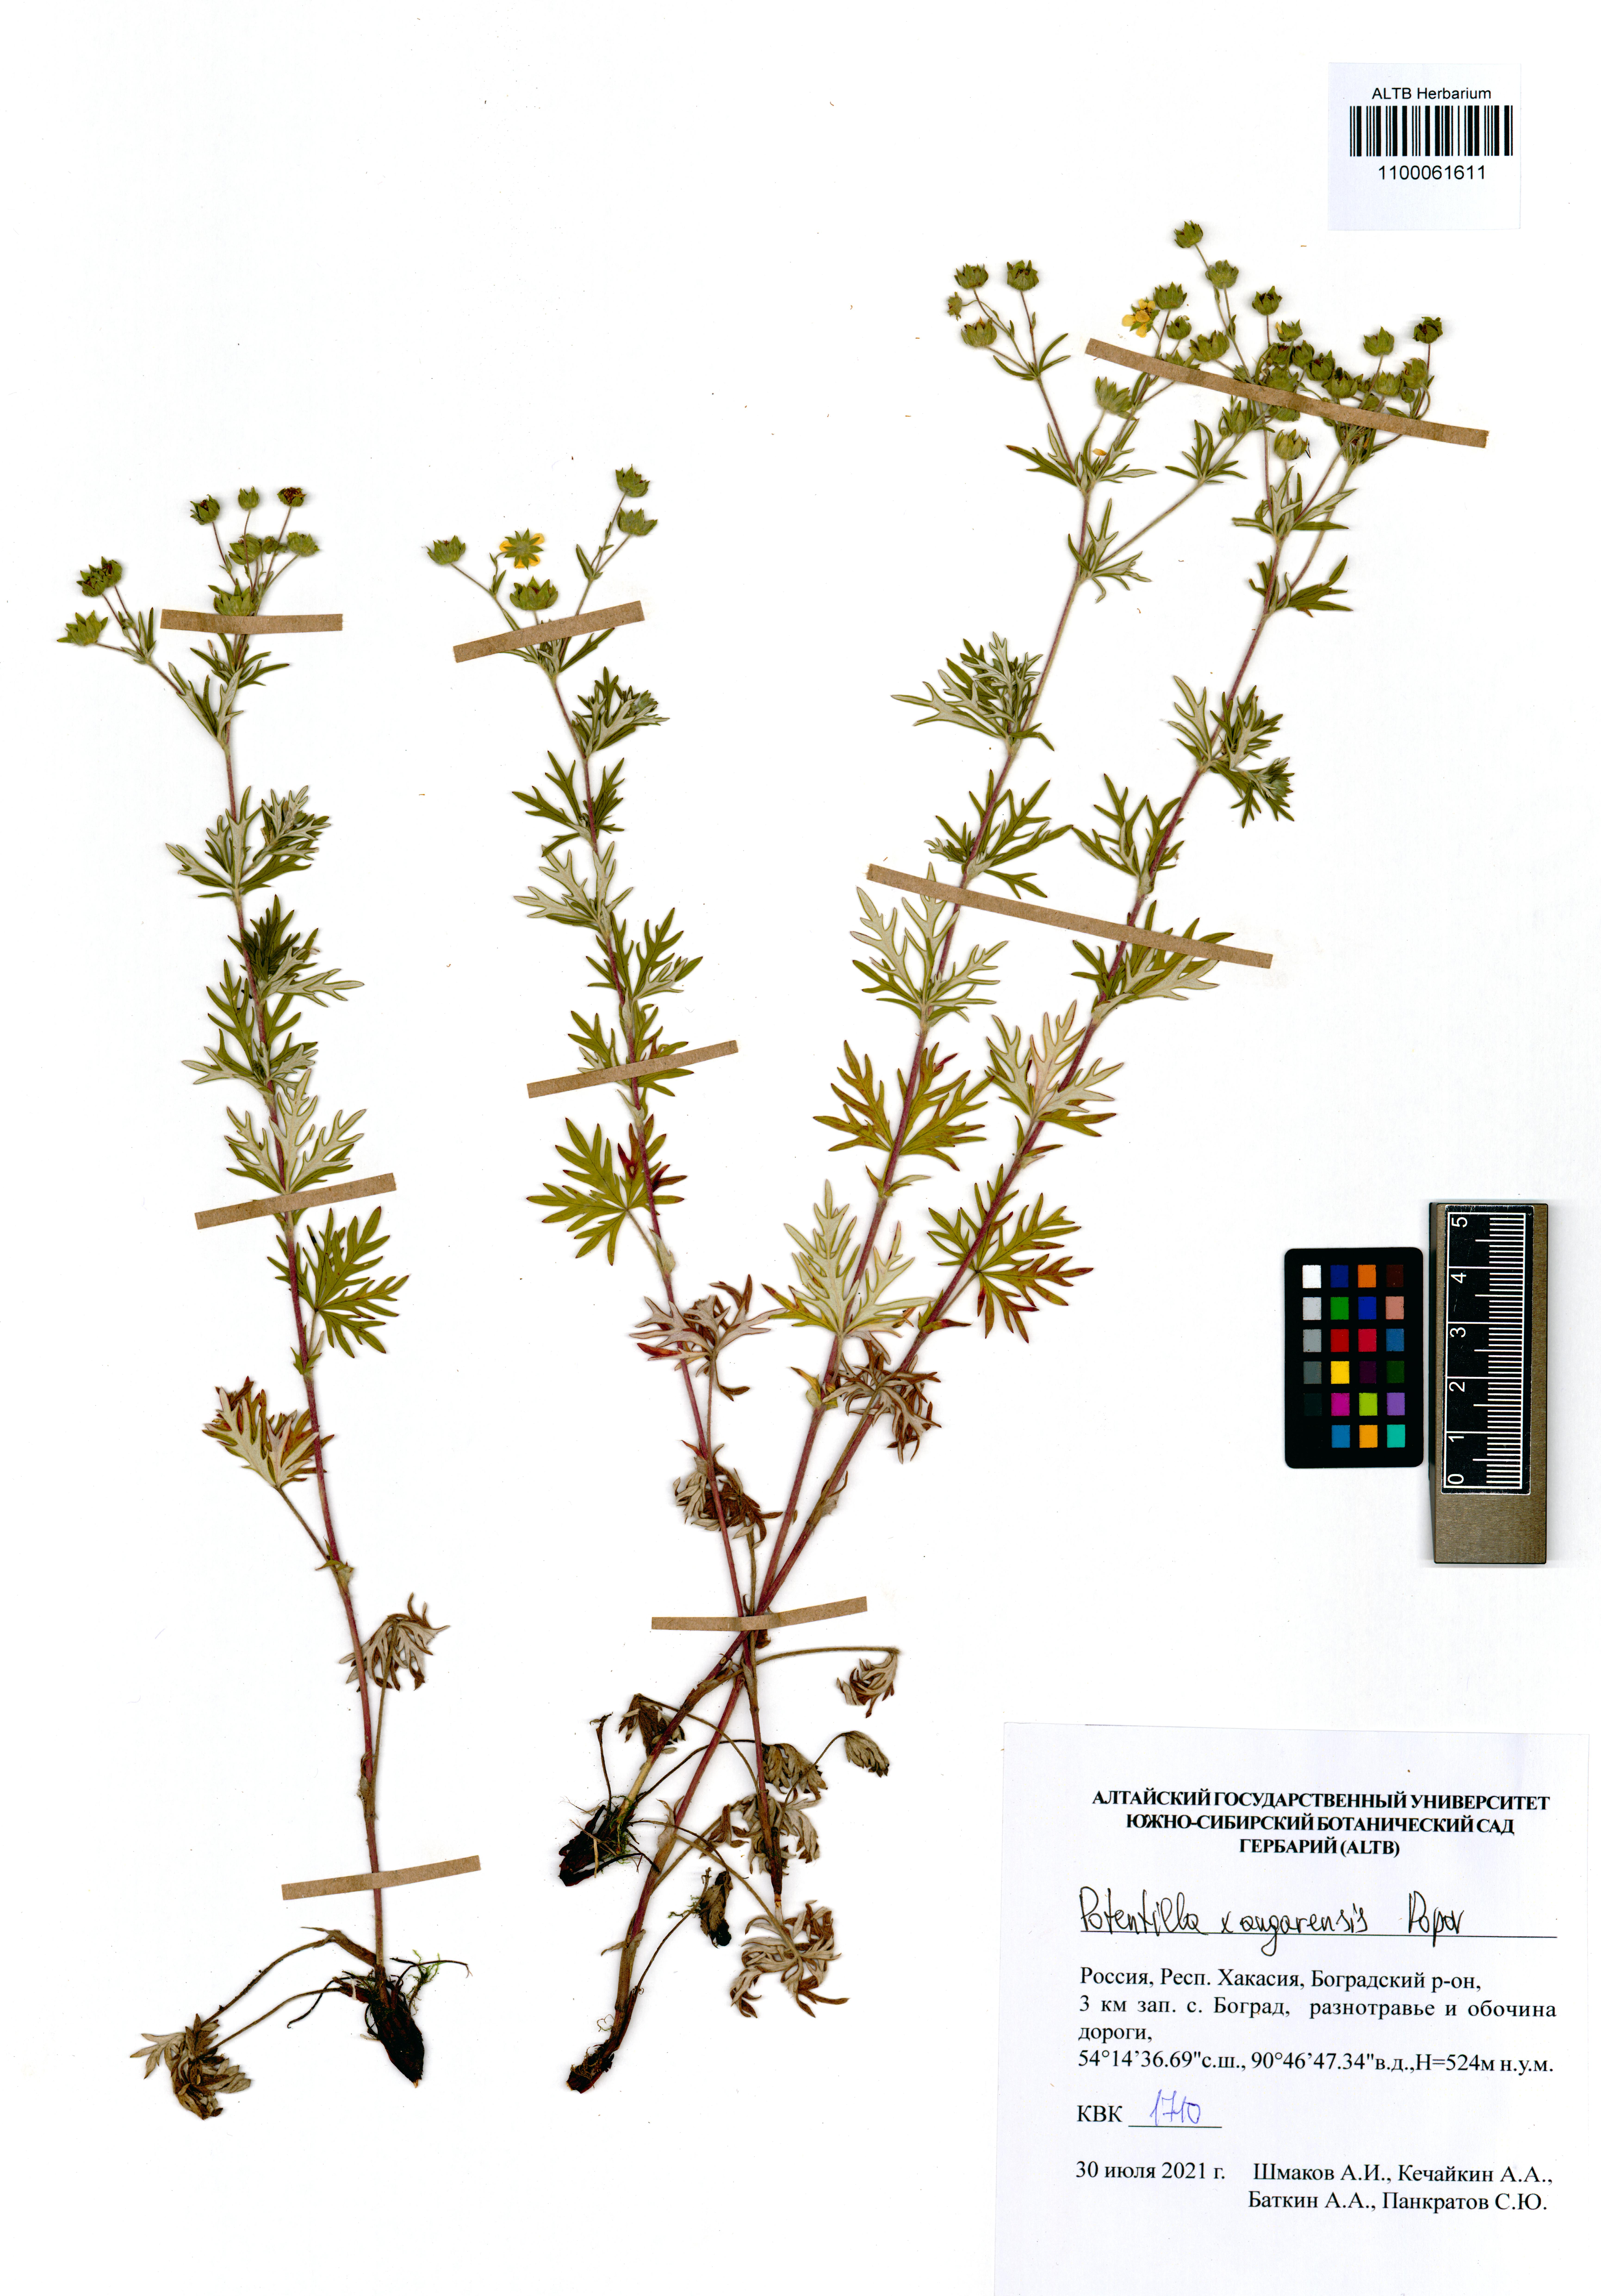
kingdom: Plantae
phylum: Tracheophyta
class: Magnoliopsida
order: Rosales
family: Rosaceae
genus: Potentilla
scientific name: Potentilla angarensis
